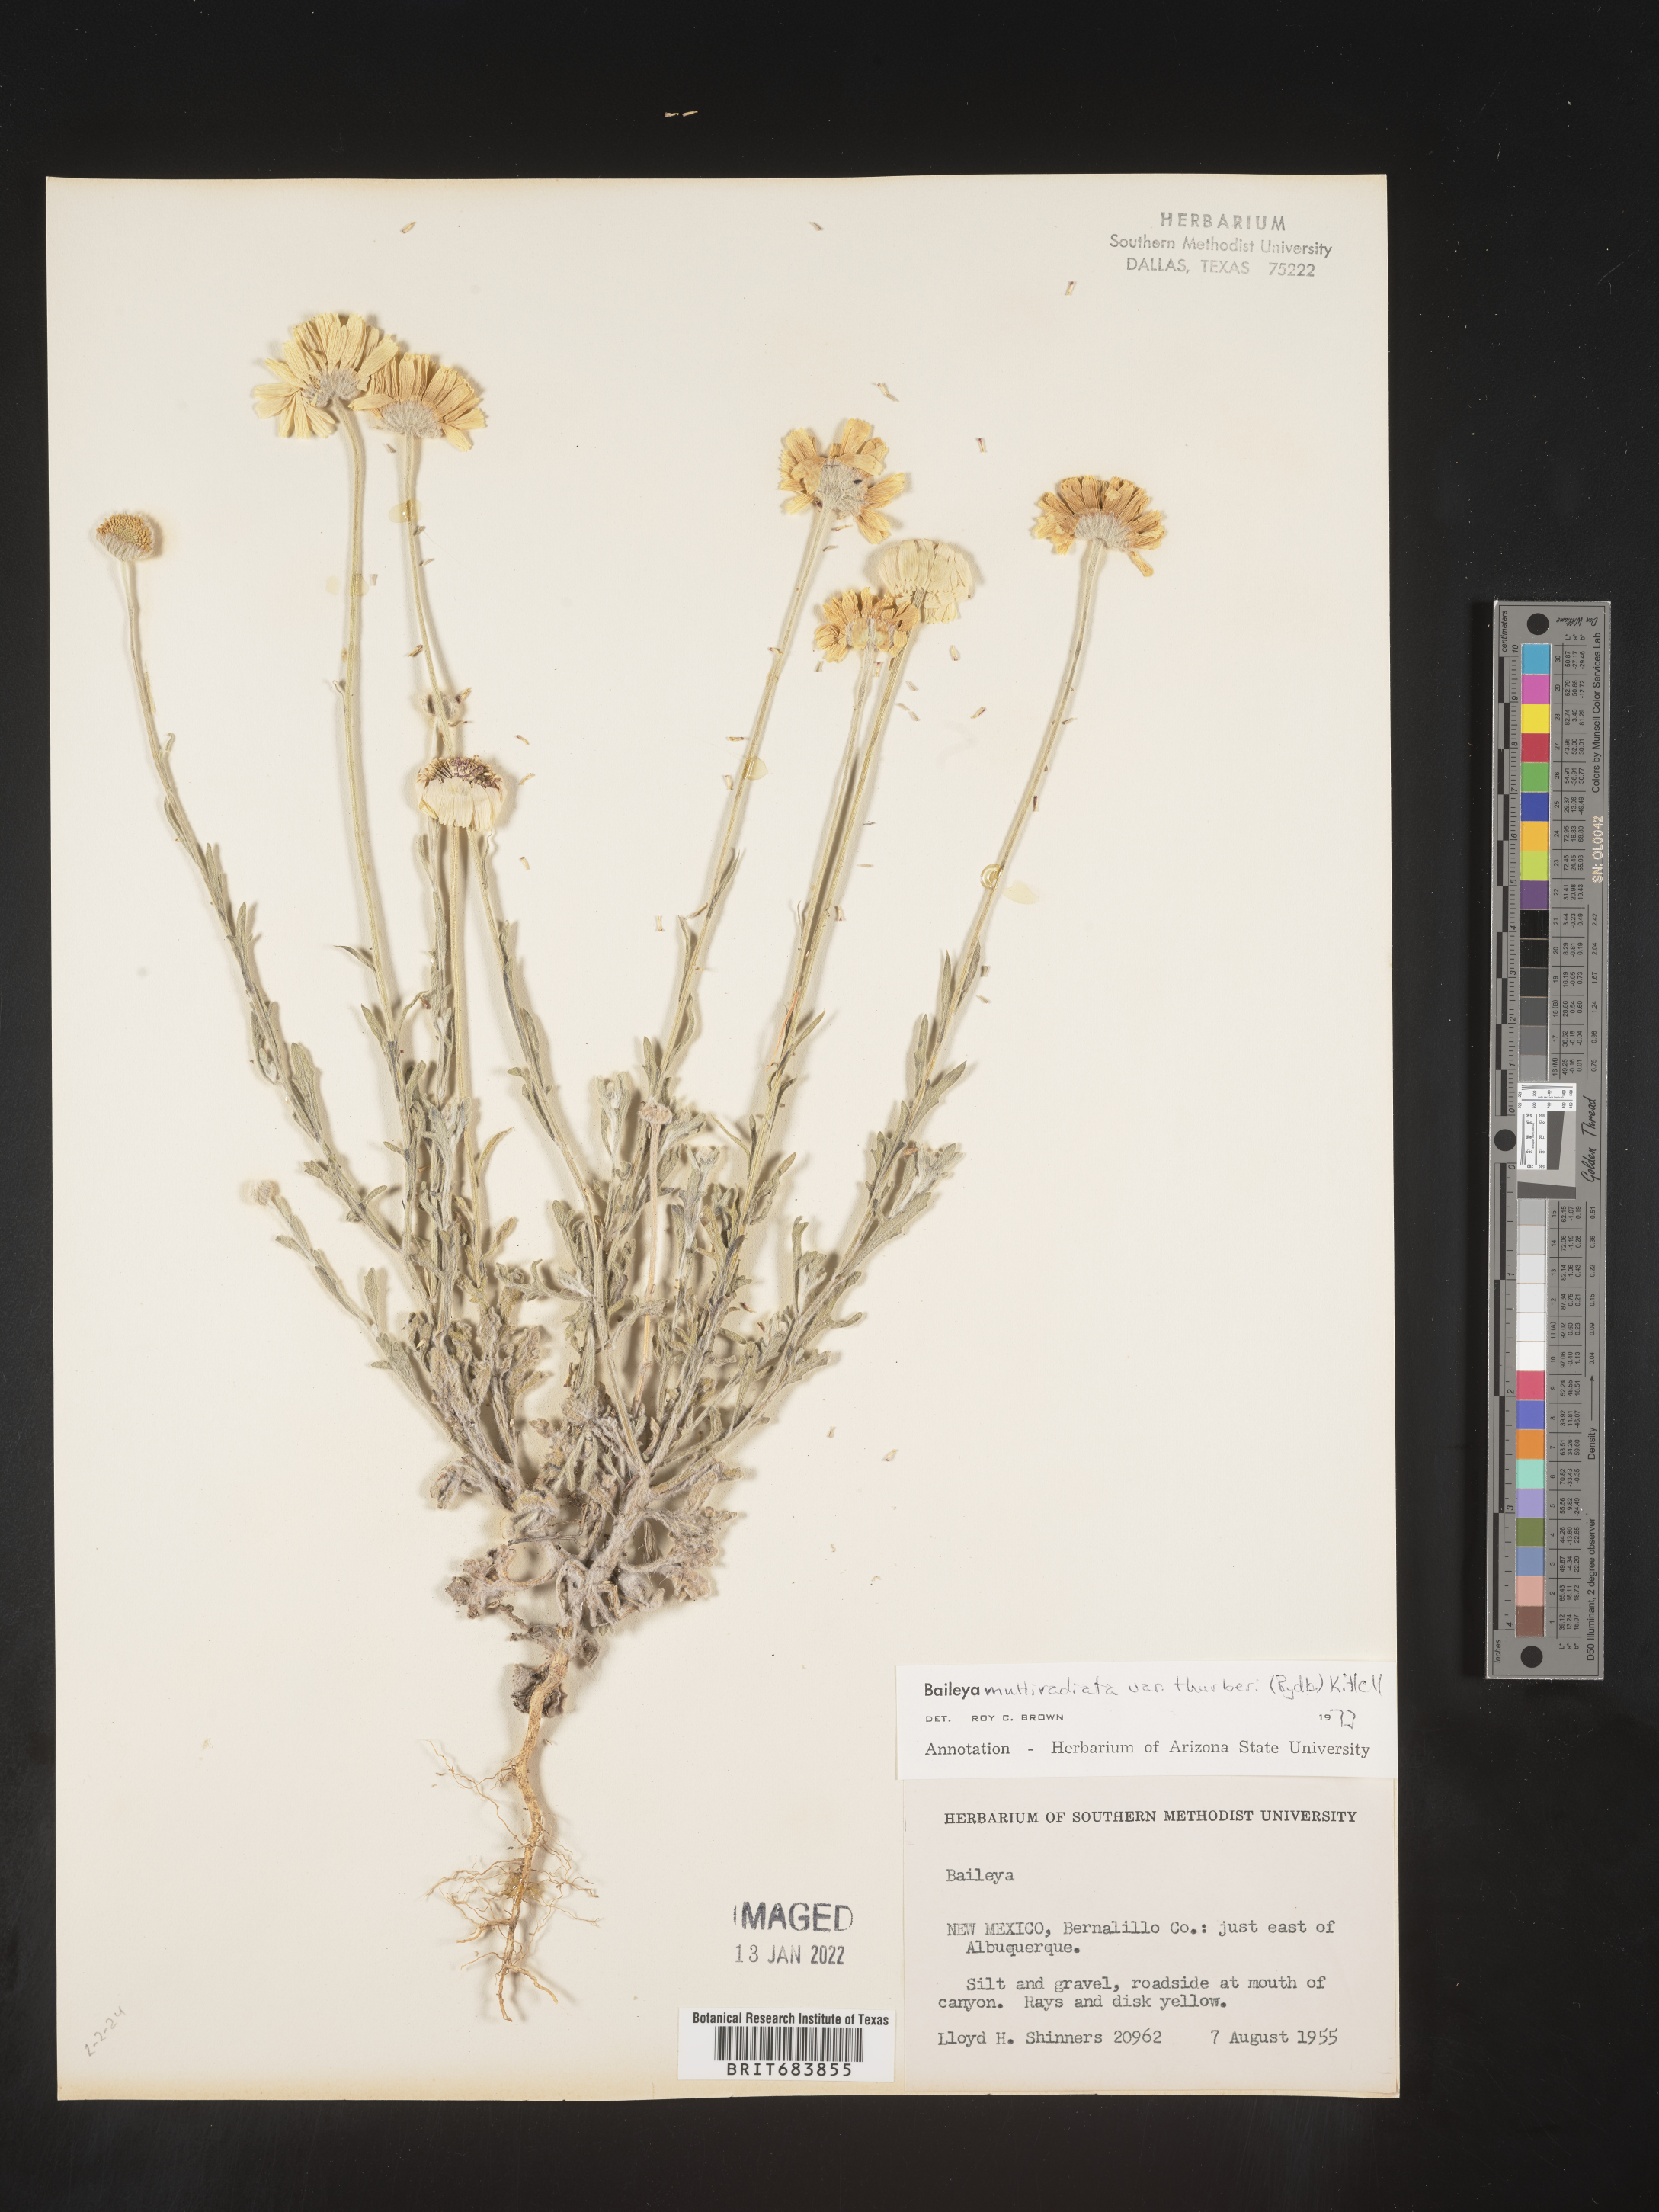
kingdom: Plantae
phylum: Tracheophyta
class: Magnoliopsida
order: Asterales
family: Asteraceae
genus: Baileya
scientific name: Baileya multiradiata
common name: Desert-marigold
